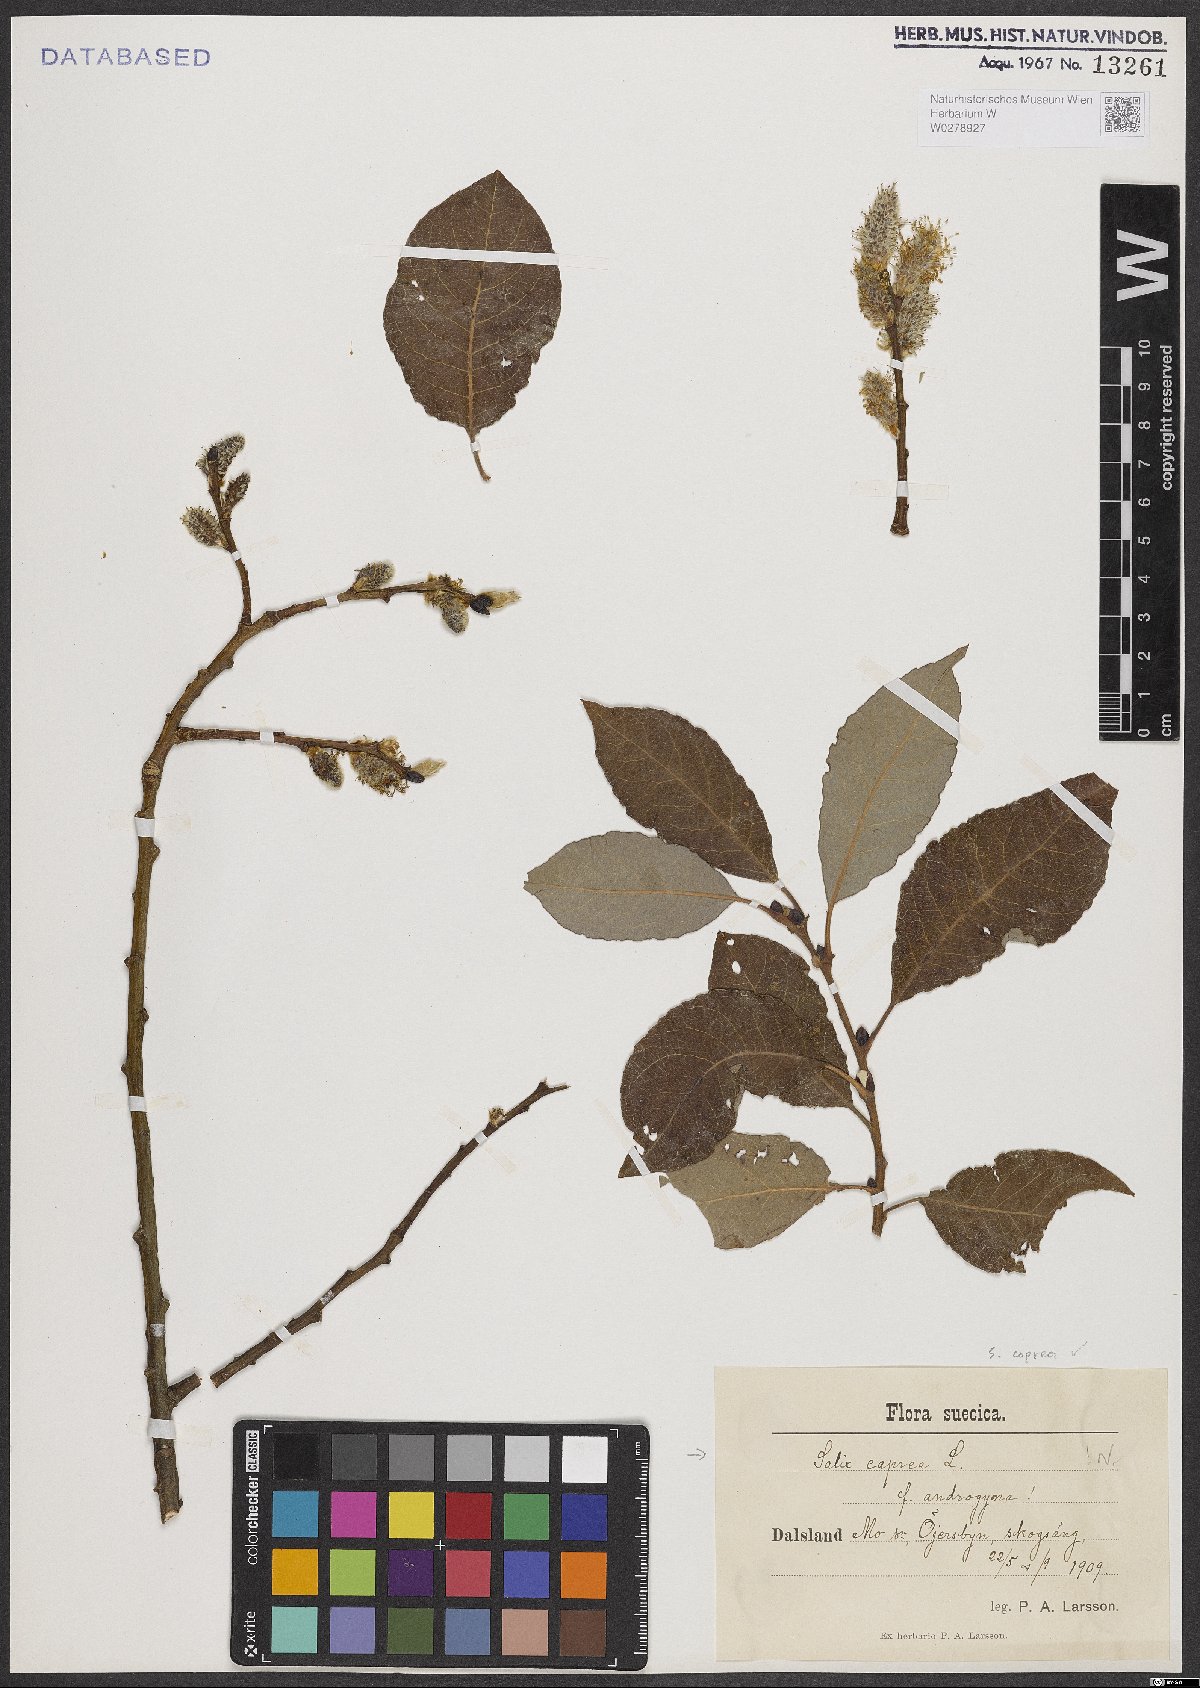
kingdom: Plantae
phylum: Tracheophyta
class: Magnoliopsida
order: Malpighiales
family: Salicaceae
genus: Salix
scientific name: Salix caprea
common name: Goat willow
